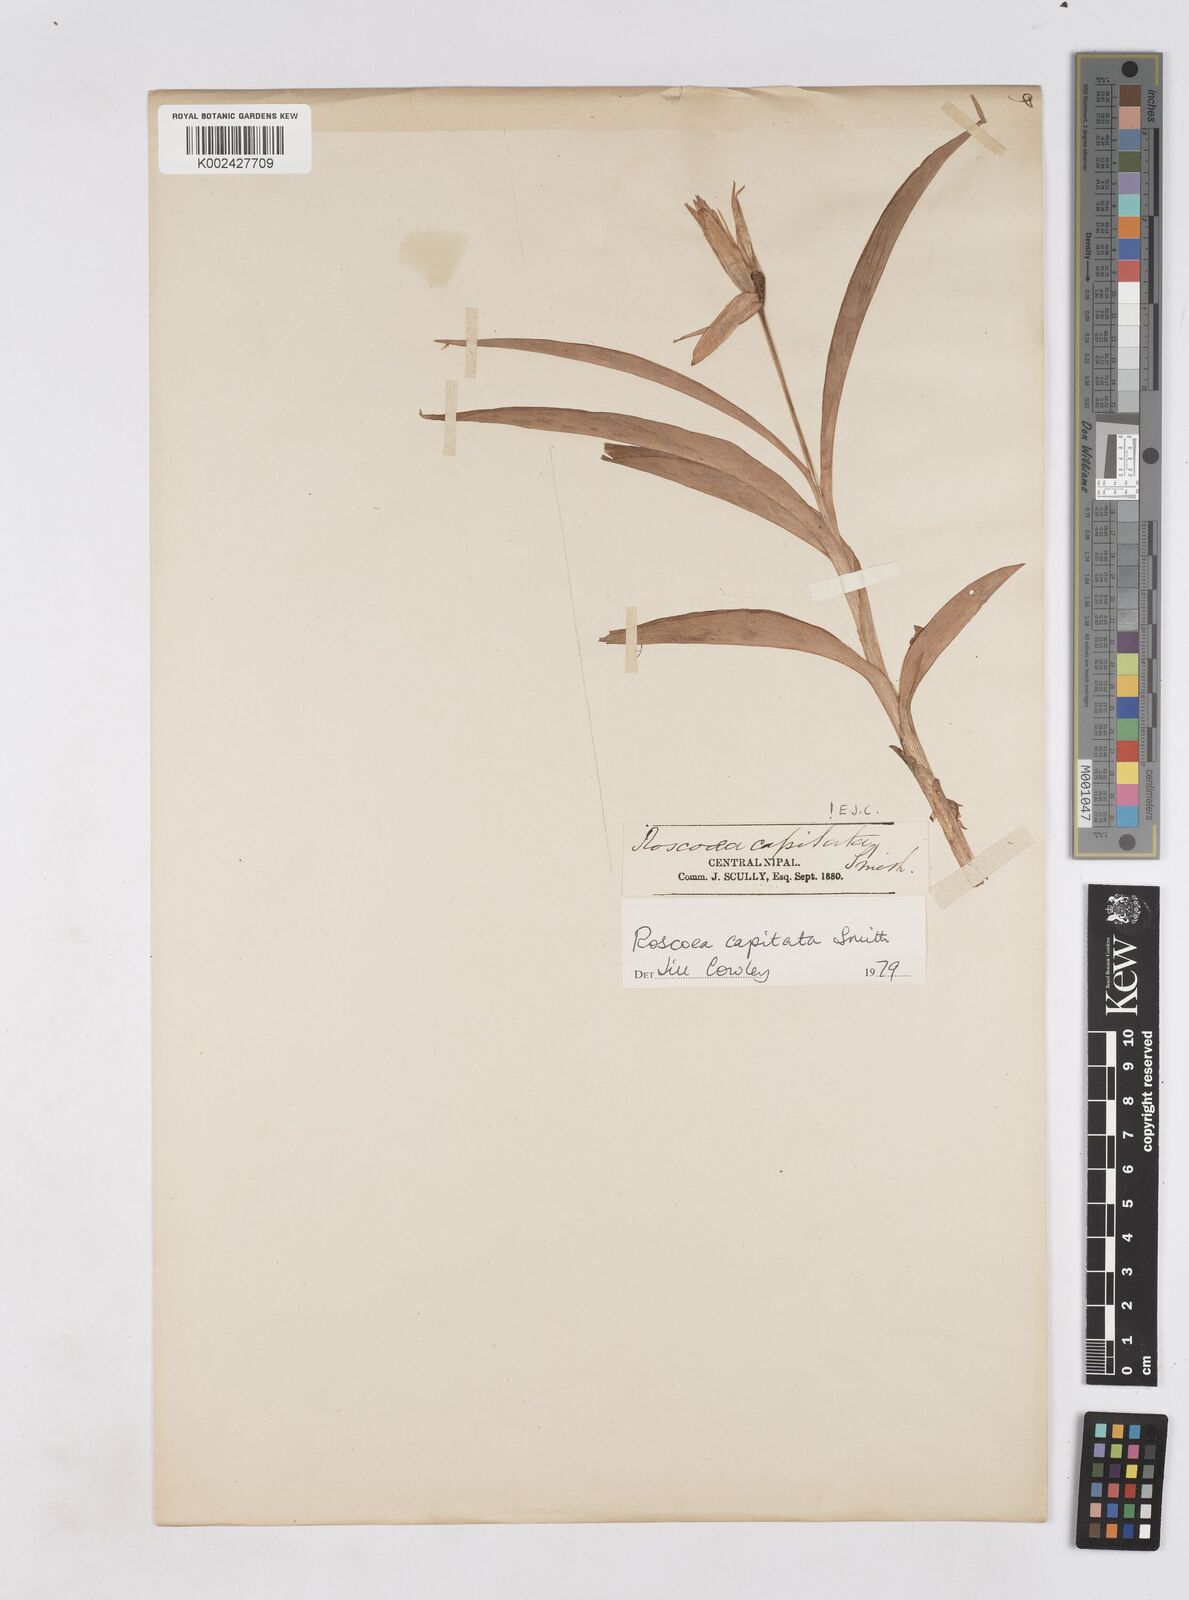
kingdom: Plantae
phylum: Tracheophyta
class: Liliopsida
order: Zingiberales
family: Zingiberaceae
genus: Roscoea
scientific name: Roscoea capitata
